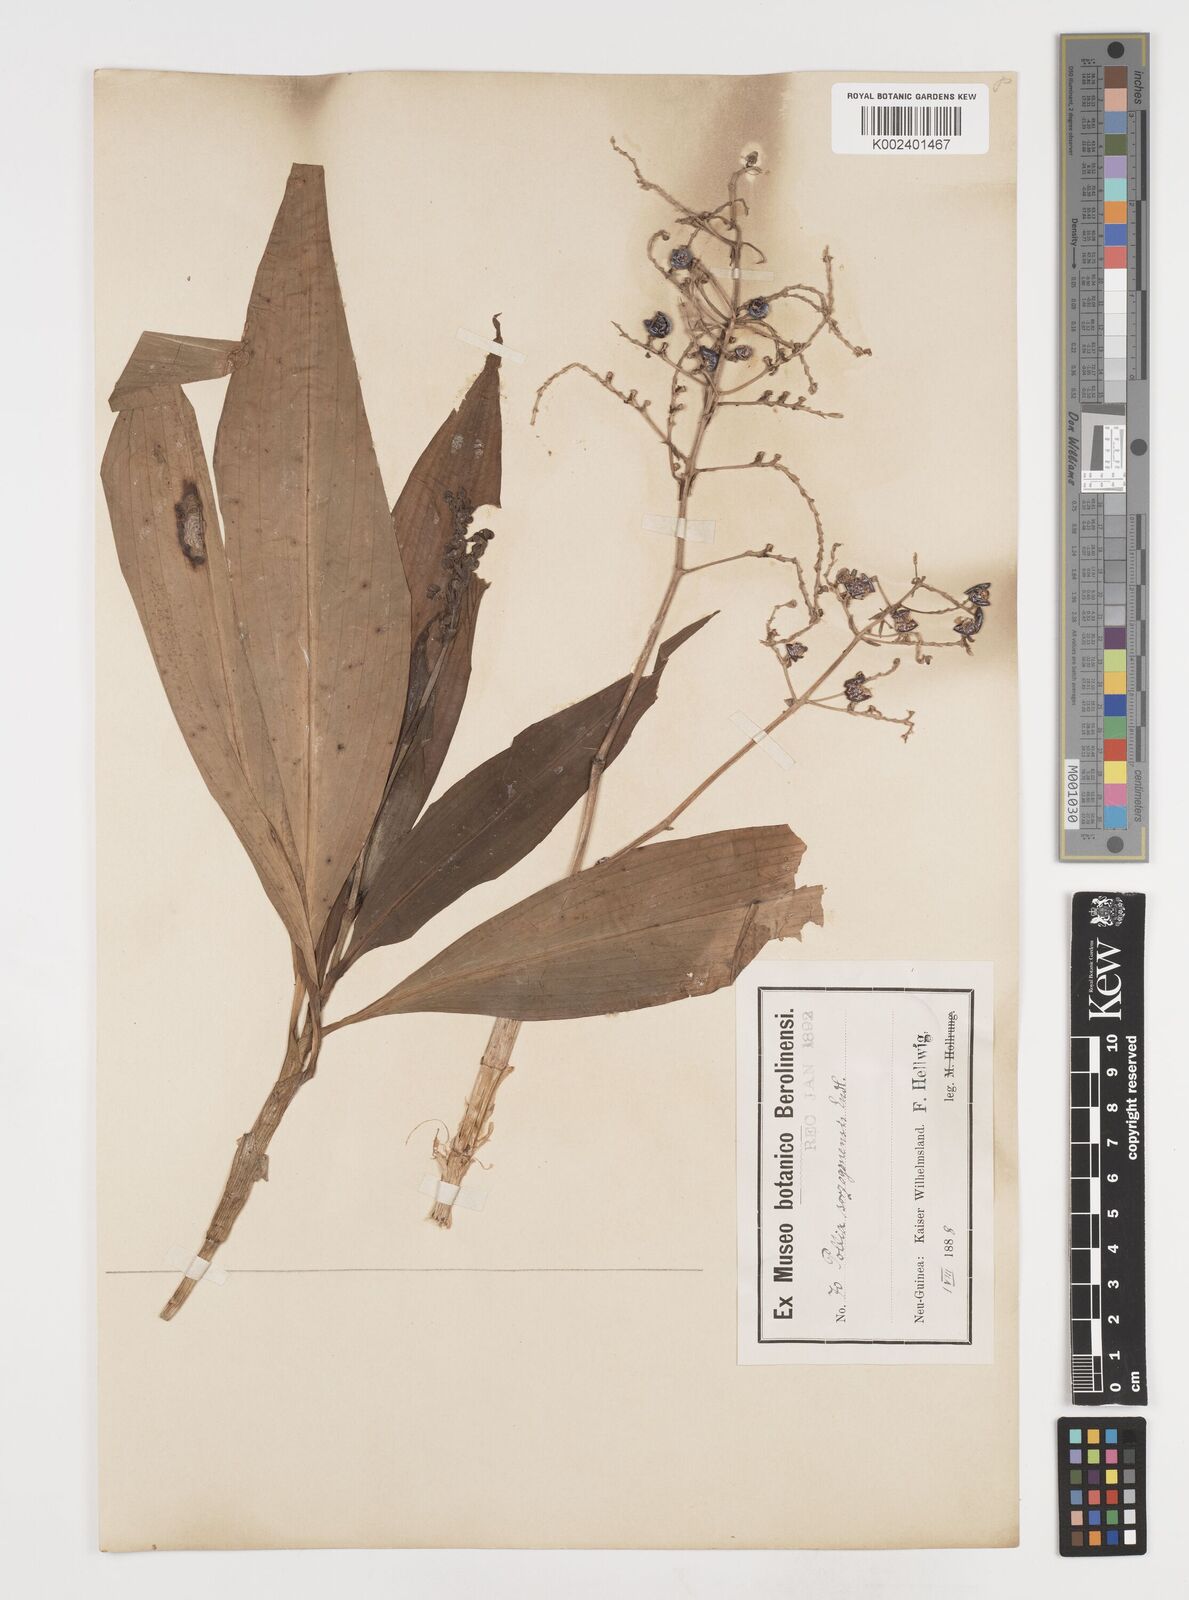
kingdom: Plantae
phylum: Tracheophyta
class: Liliopsida
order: Commelinales
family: Commelinaceae
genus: Pollia
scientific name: Pollia secundiflora
